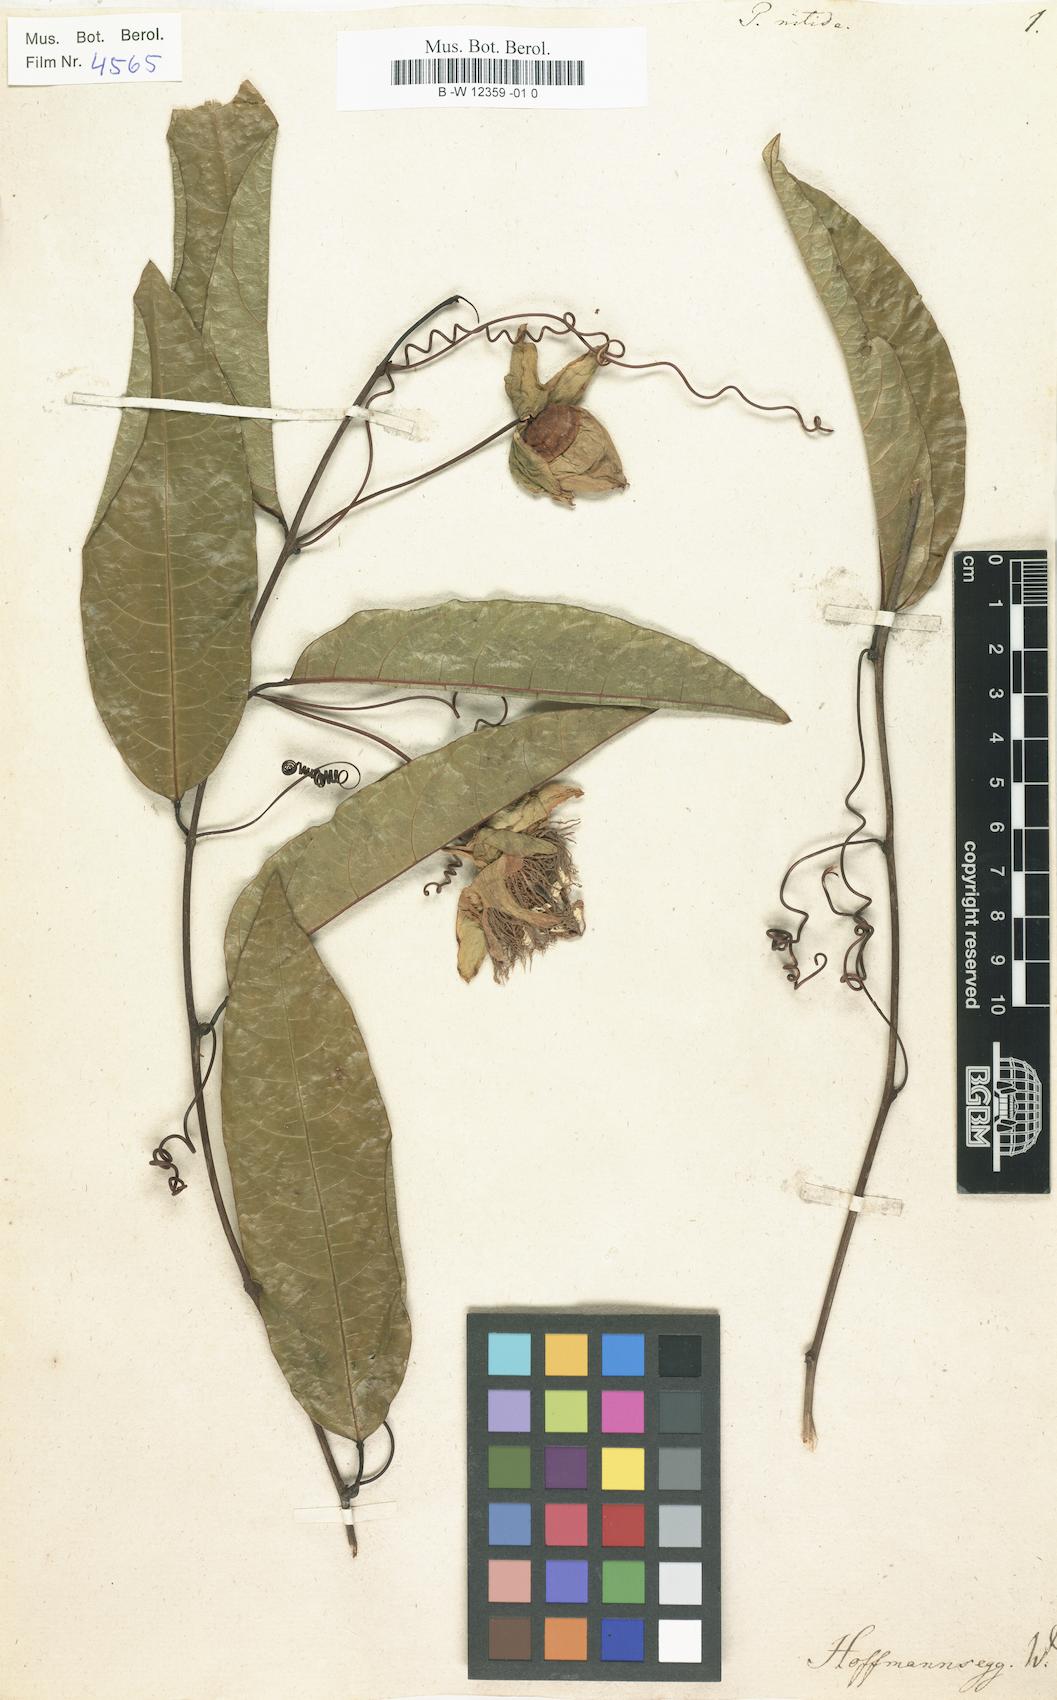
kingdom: Plantae
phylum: Tracheophyta
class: Magnoliopsida
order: Malpighiales
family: Passifloraceae
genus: Passiflora
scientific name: Passiflora nitida
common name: Bell-apple
